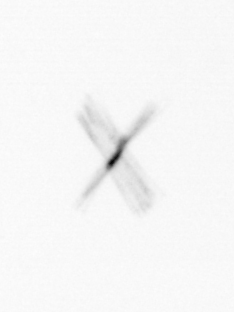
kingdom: Chromista
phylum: Ochrophyta
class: Bacillariophyceae
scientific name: Bacillariophyceae
